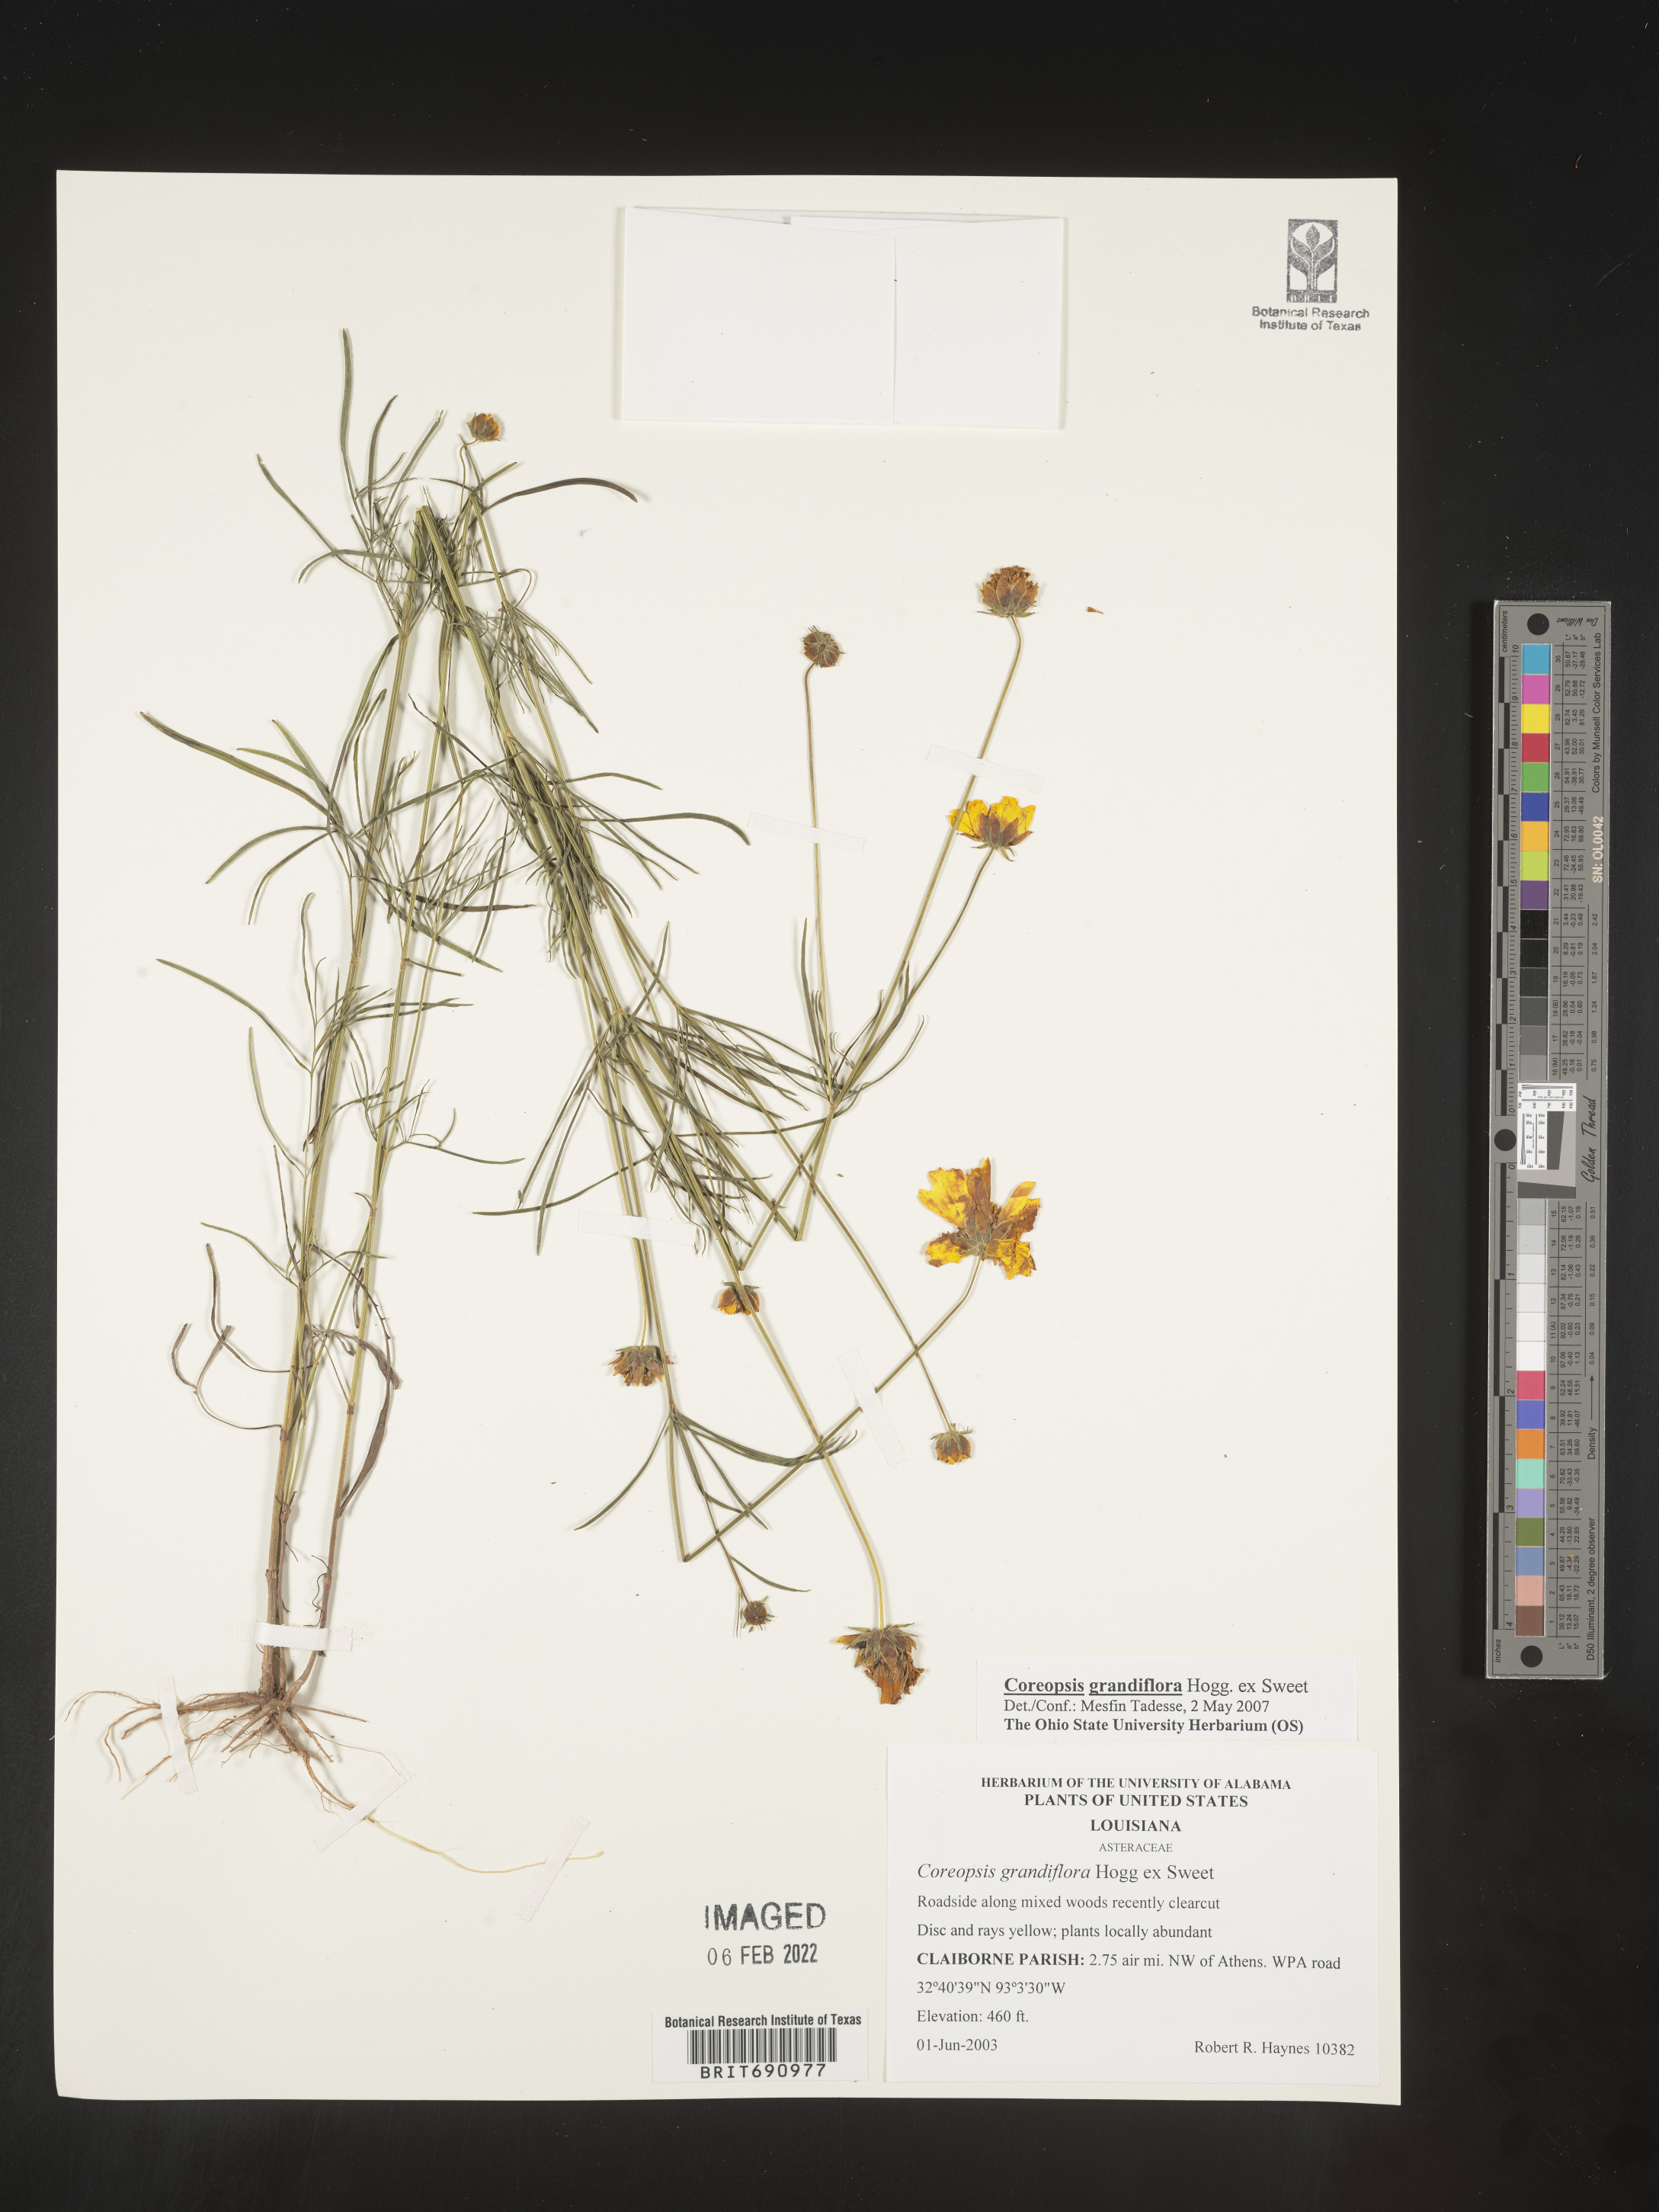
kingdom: Plantae
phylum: Tracheophyta
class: Magnoliopsida
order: Asterales
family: Asteraceae
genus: Coreopsis
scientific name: Coreopsis grandiflora
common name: Large-flowered tickseed
